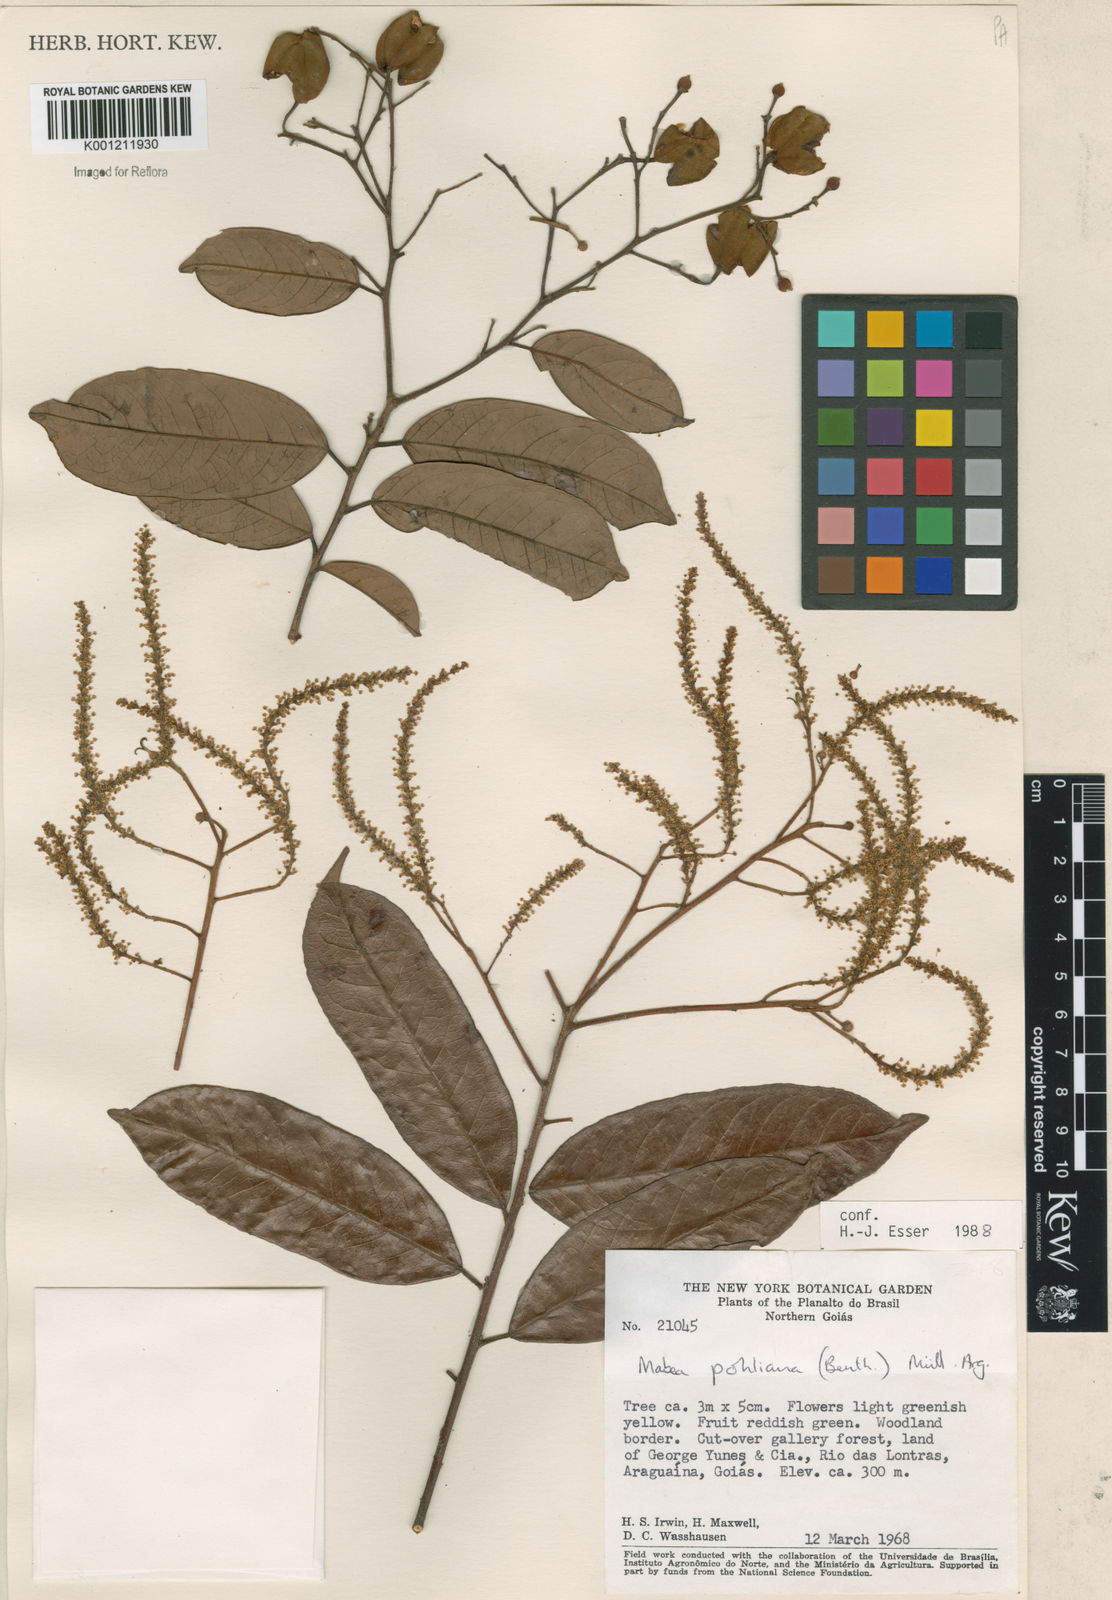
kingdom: Plantae
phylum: Tracheophyta
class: Magnoliopsida
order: Malpighiales
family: Euphorbiaceae
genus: Mabea
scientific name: Mabea
